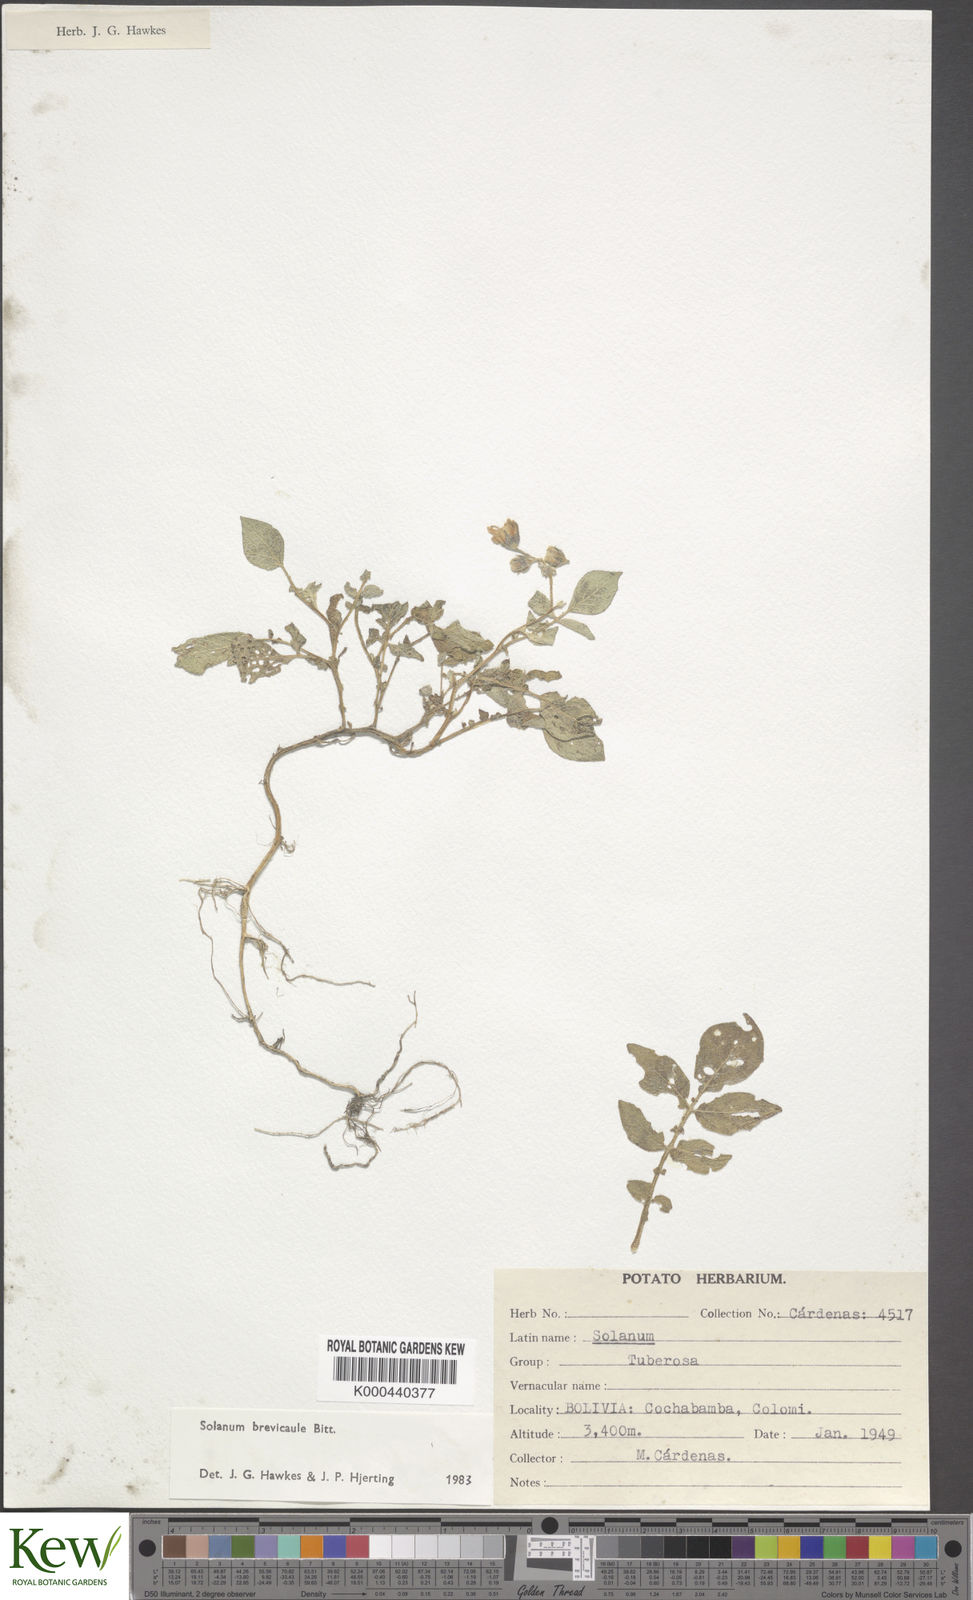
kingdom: Plantae
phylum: Tracheophyta
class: Magnoliopsida
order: Solanales
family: Solanaceae
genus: Solanum
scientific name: Solanum brevicaule
